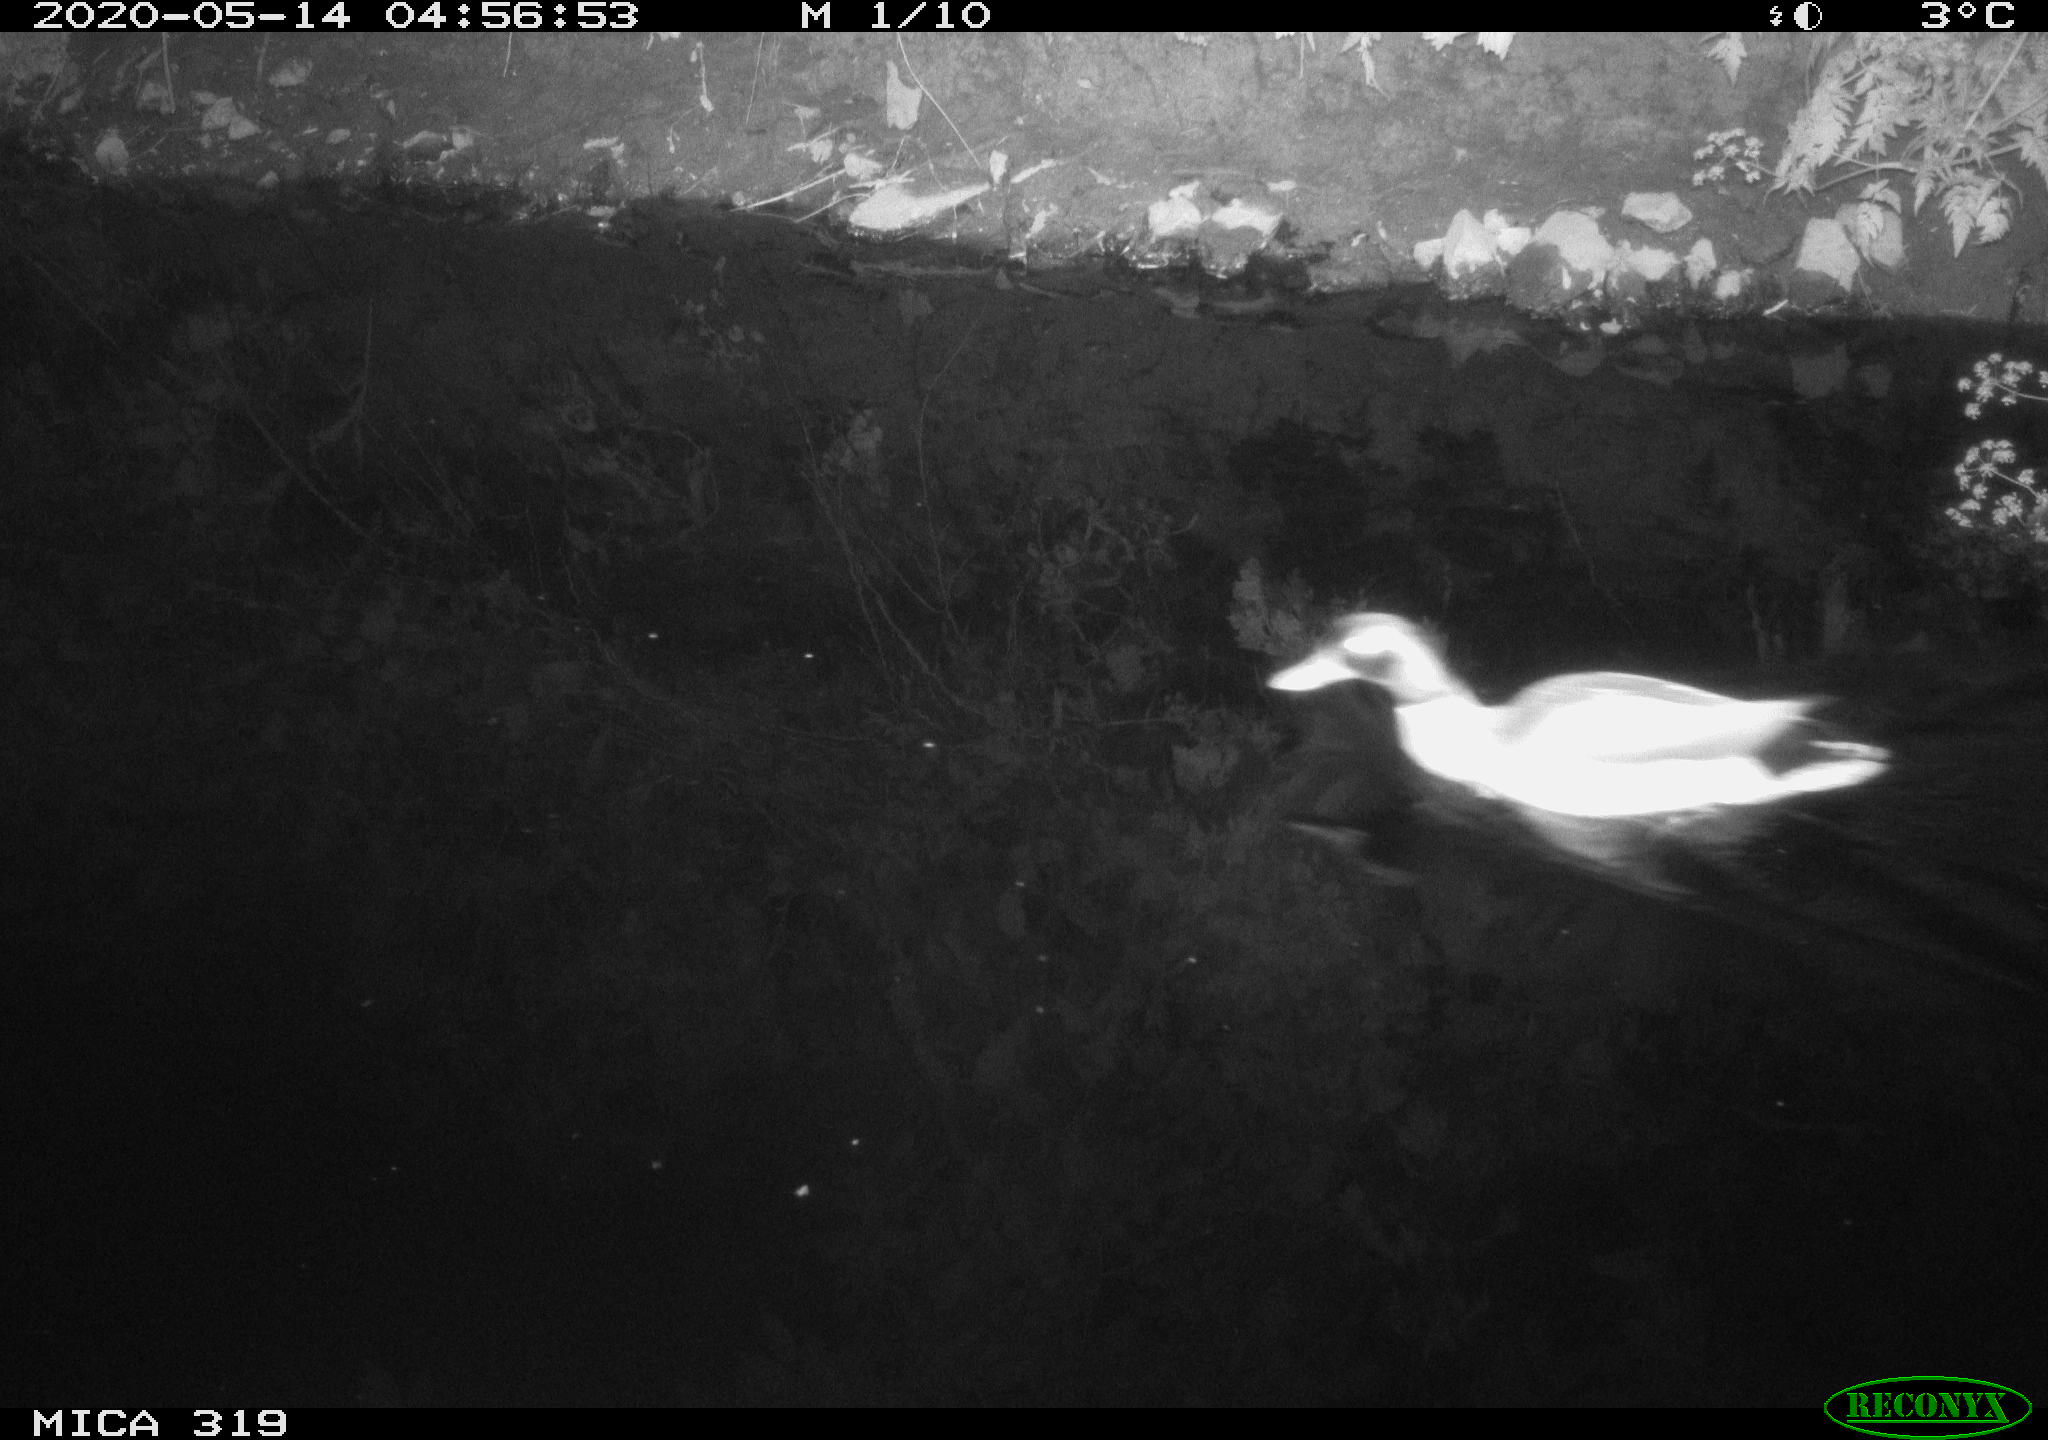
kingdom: Animalia
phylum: Chordata
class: Aves
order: Anseriformes
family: Anatidae
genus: Anas
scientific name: Anas platyrhynchos
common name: Mallard
